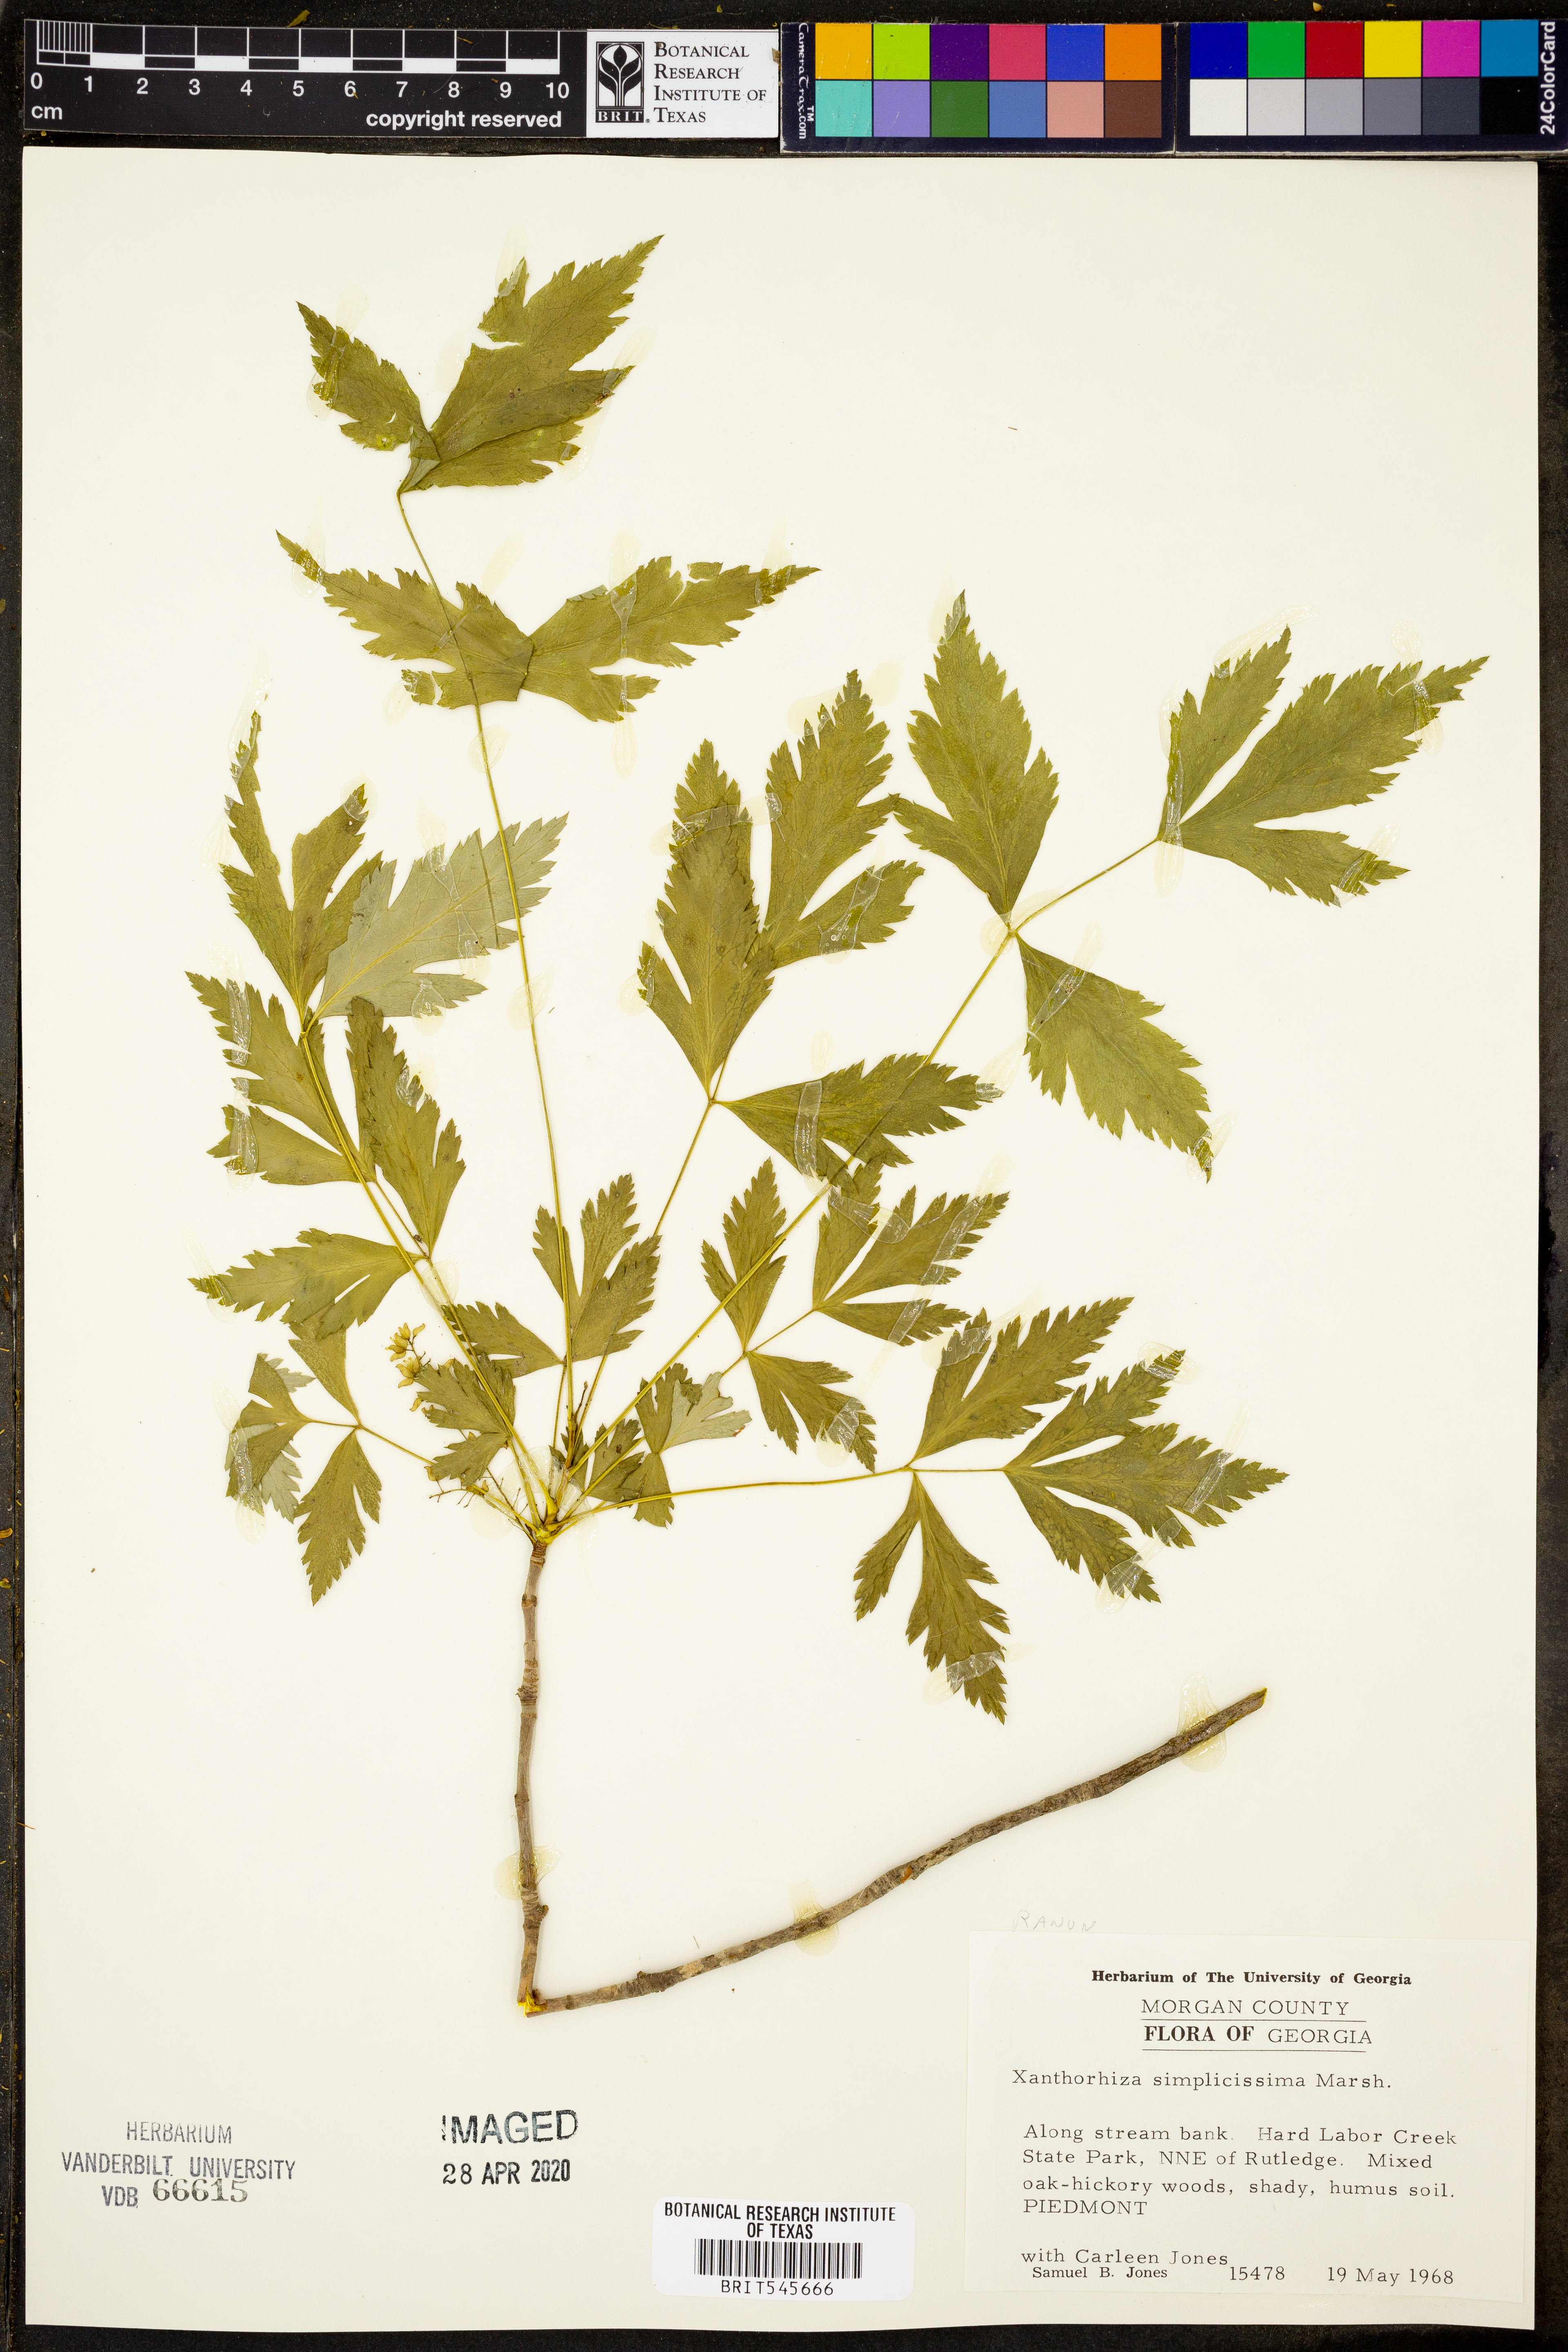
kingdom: Plantae
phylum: Tracheophyta
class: Magnoliopsida
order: Ranunculales
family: Ranunculaceae
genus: Xanthorhiza
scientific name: Xanthorhiza simplicissima
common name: Yellowroot
